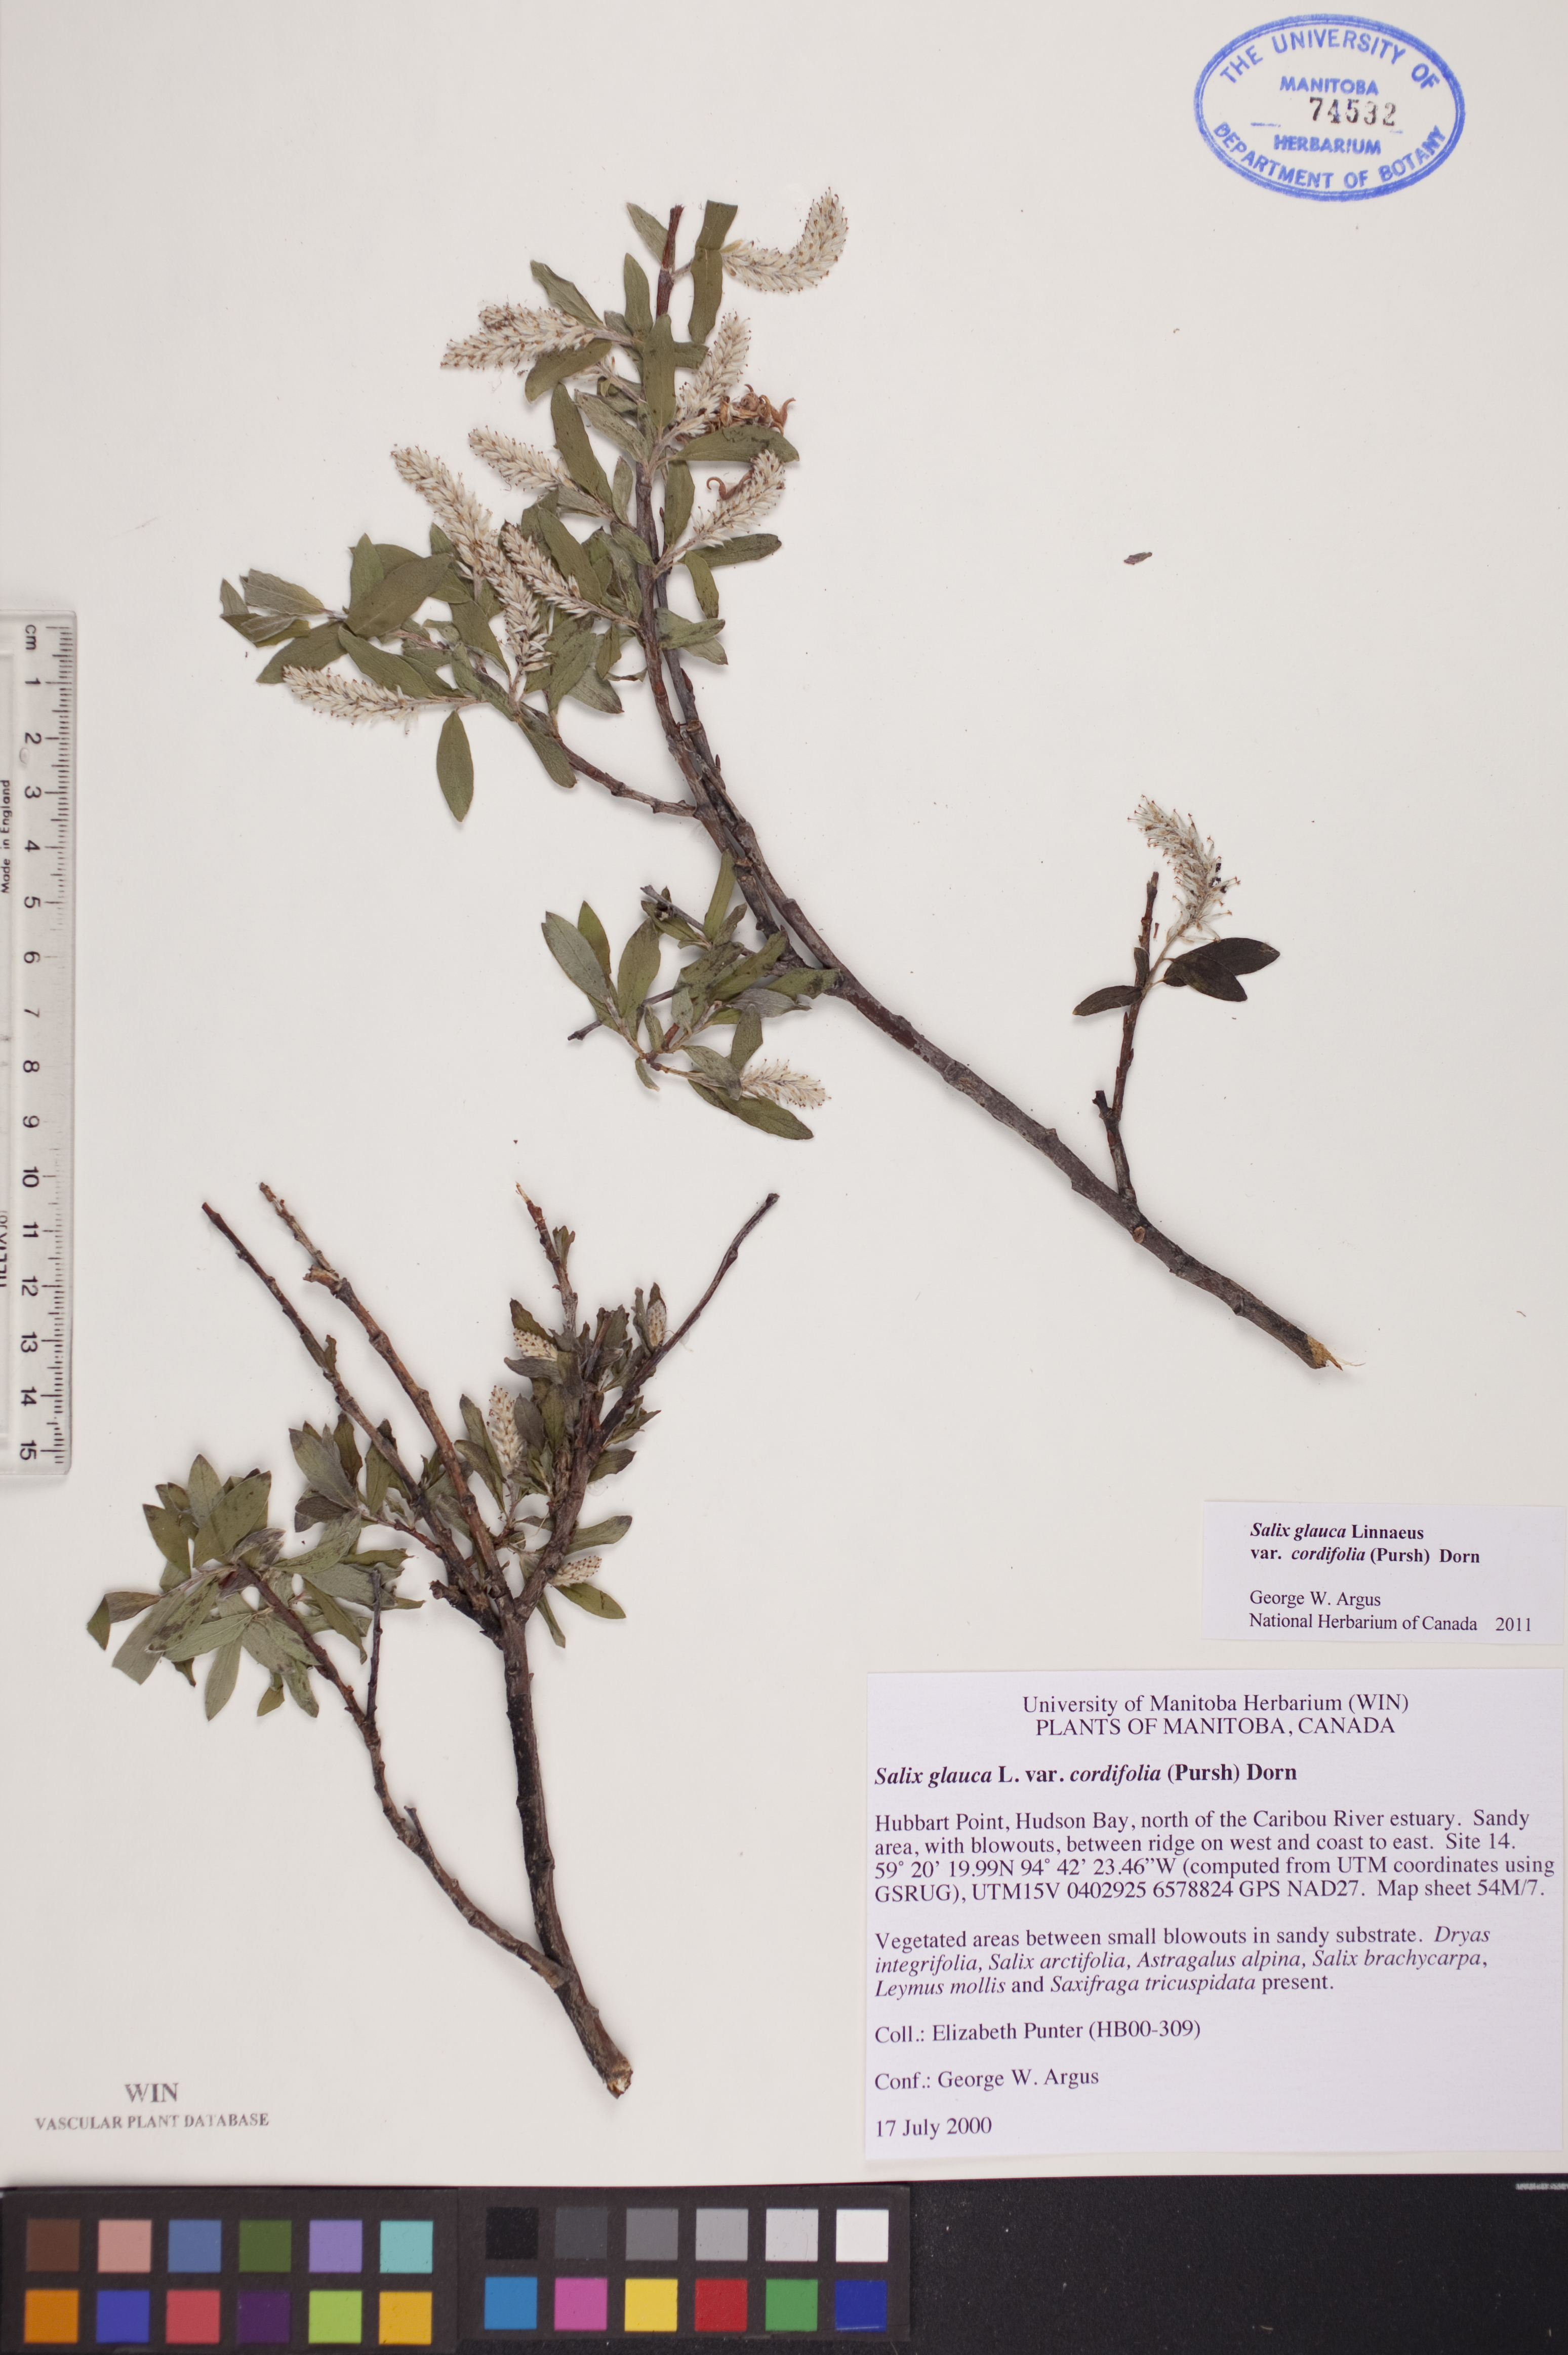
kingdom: Plantae
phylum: Tracheophyta
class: Magnoliopsida
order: Malpighiales
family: Salicaceae
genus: Salix
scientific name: Salix glauca
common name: Glaucous willow
